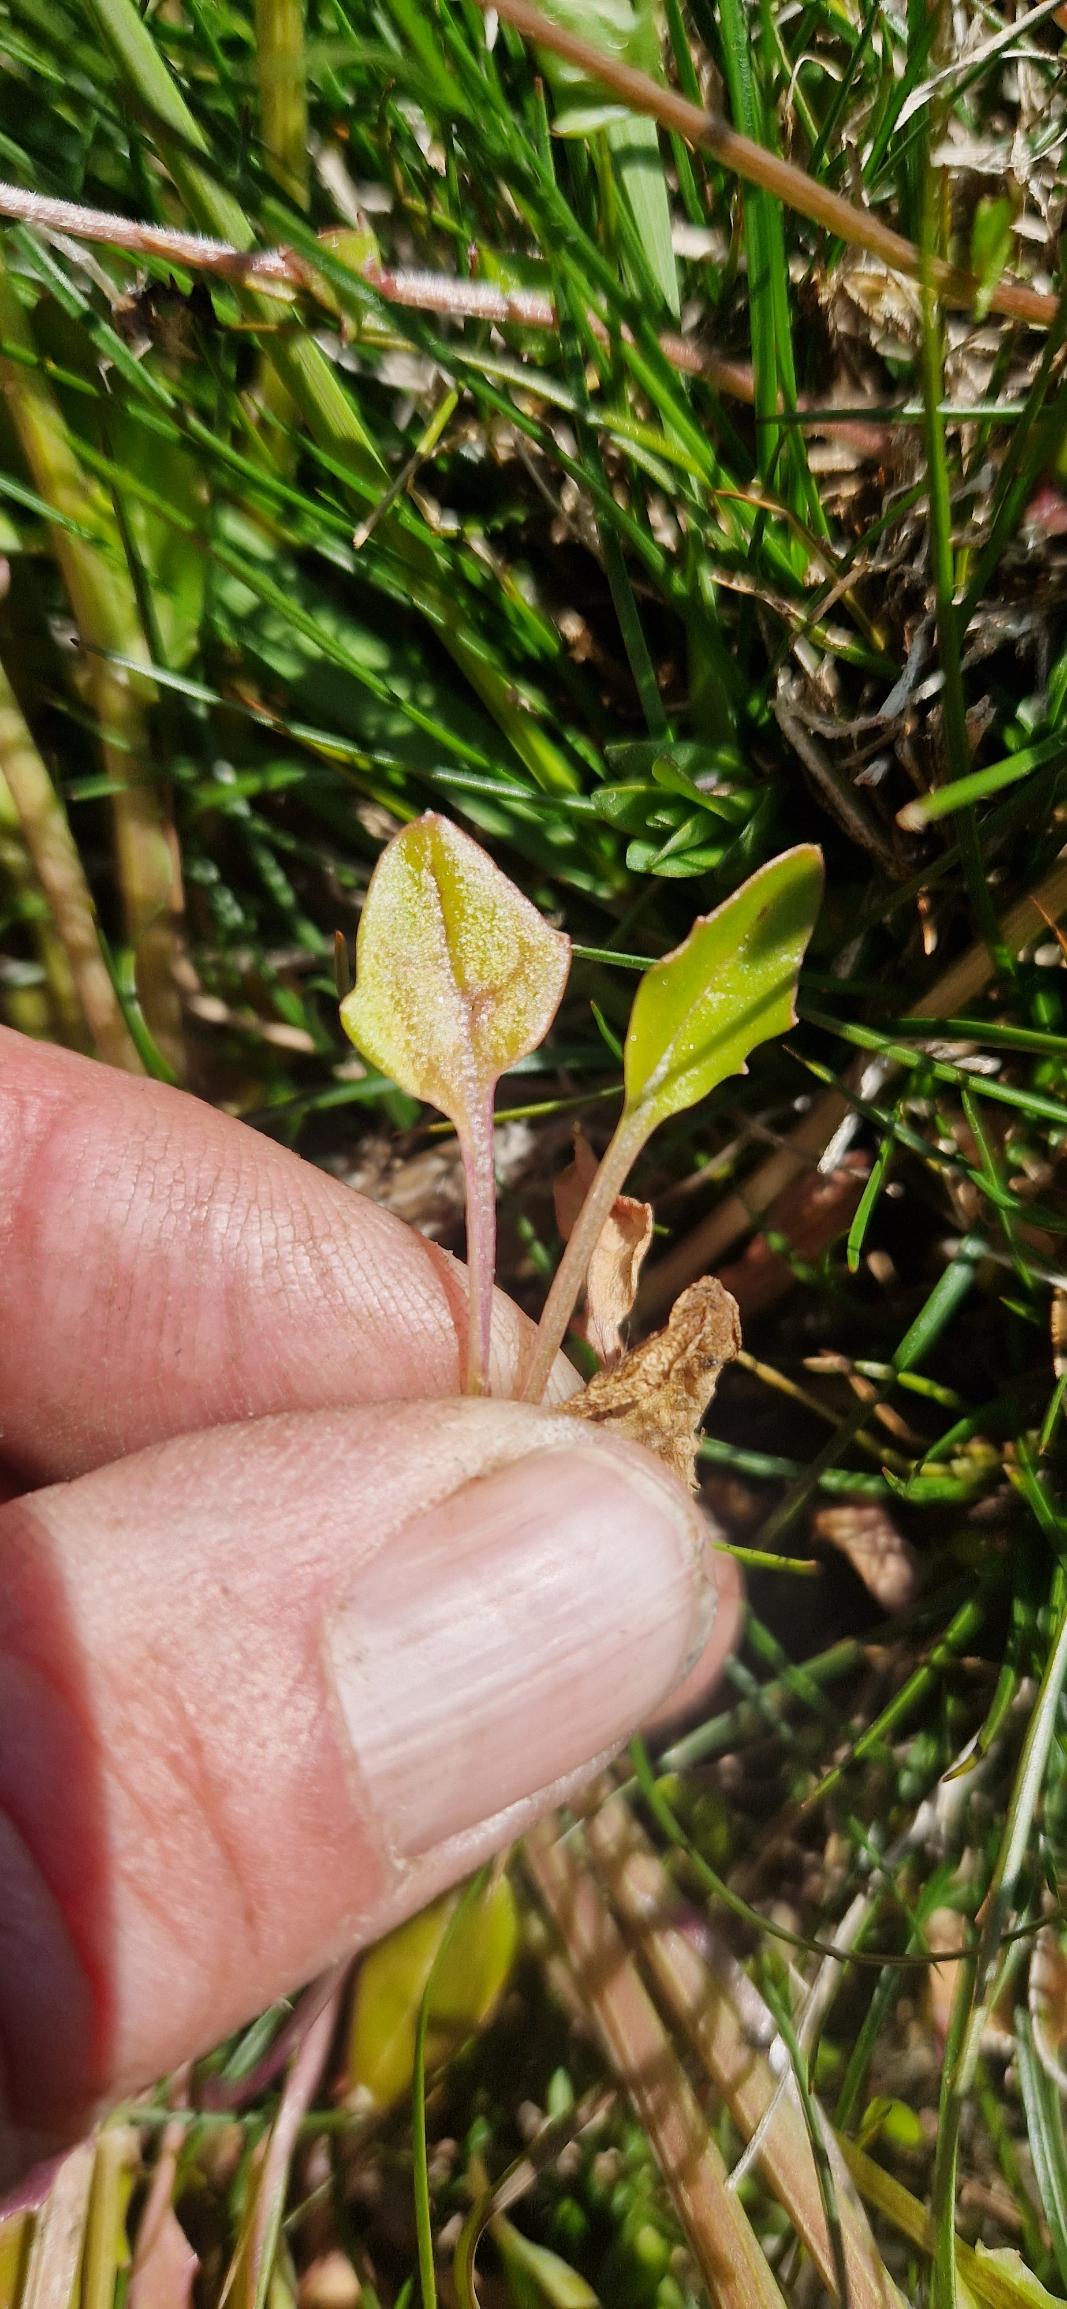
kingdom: Plantae
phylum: Tracheophyta
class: Magnoliopsida
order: Brassicales
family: Brassicaceae
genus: Cochlearia
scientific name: Cochlearia anglica
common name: Engelsk kokleare
